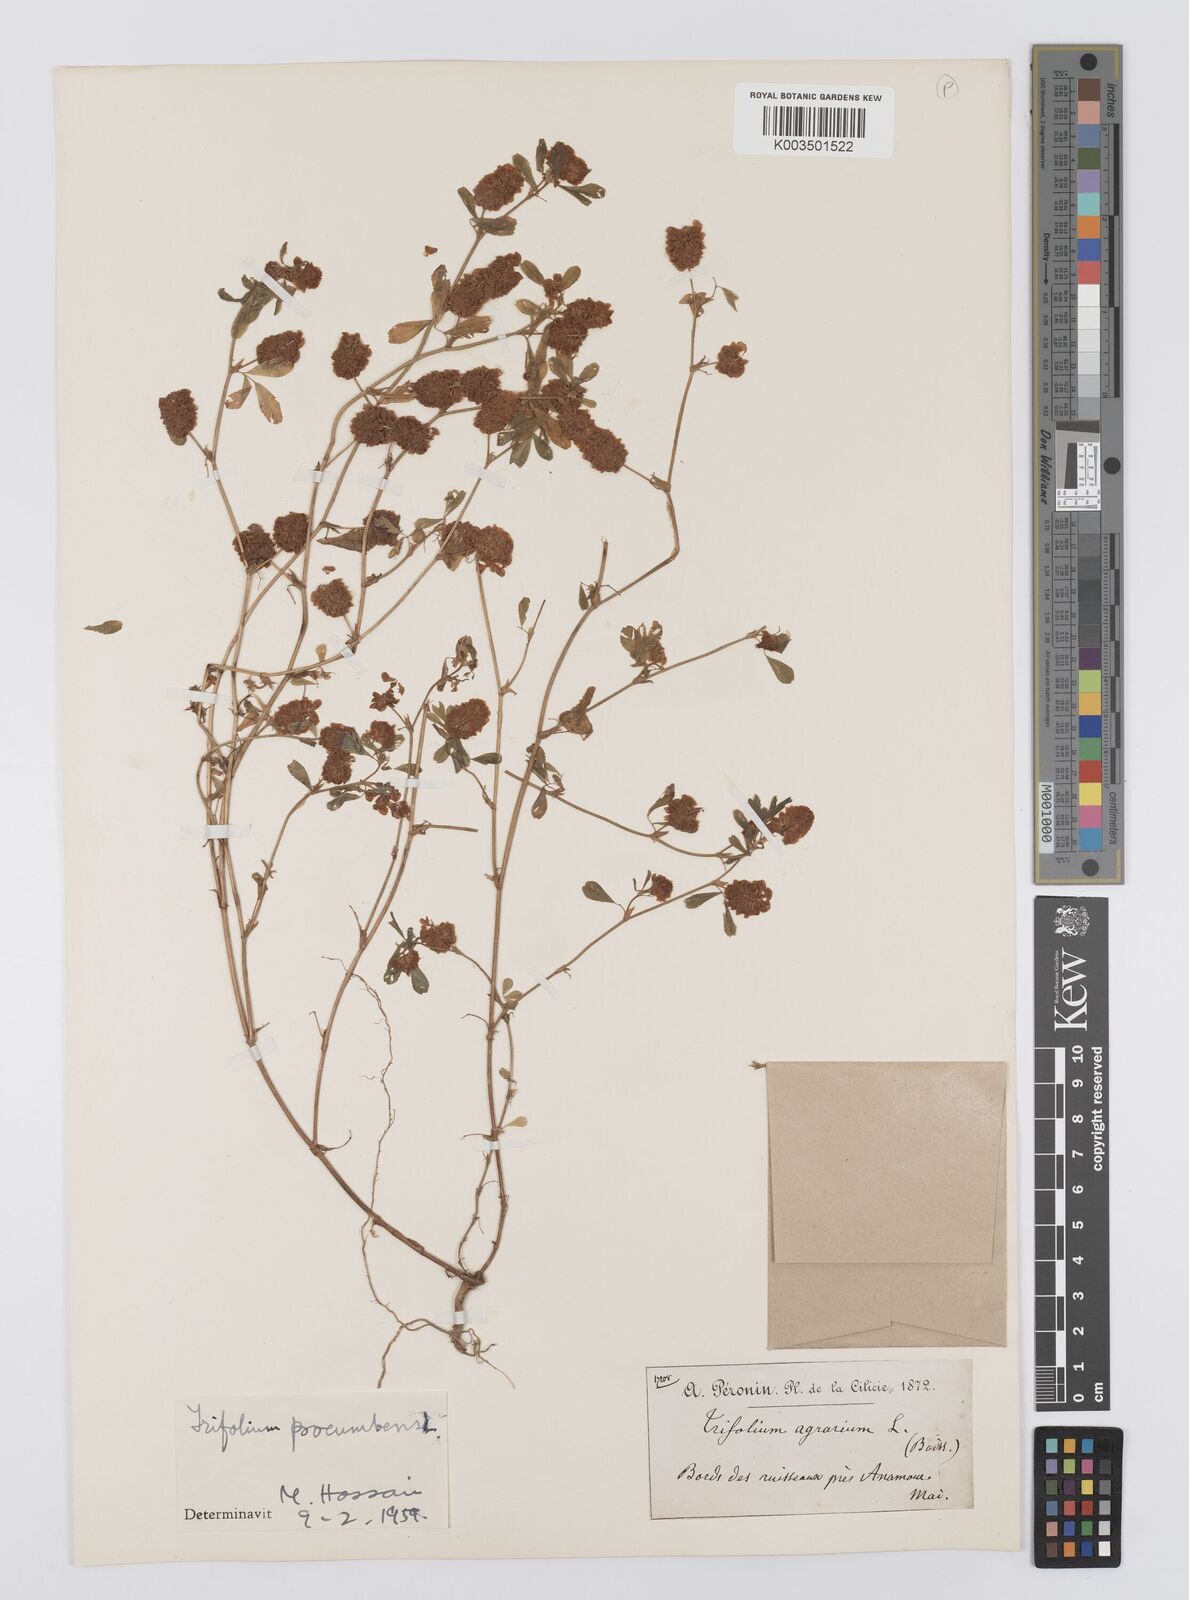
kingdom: Plantae
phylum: Tracheophyta
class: Magnoliopsida
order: Fabales
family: Fabaceae
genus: Trifolium
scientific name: Trifolium campestre
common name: Field clover
